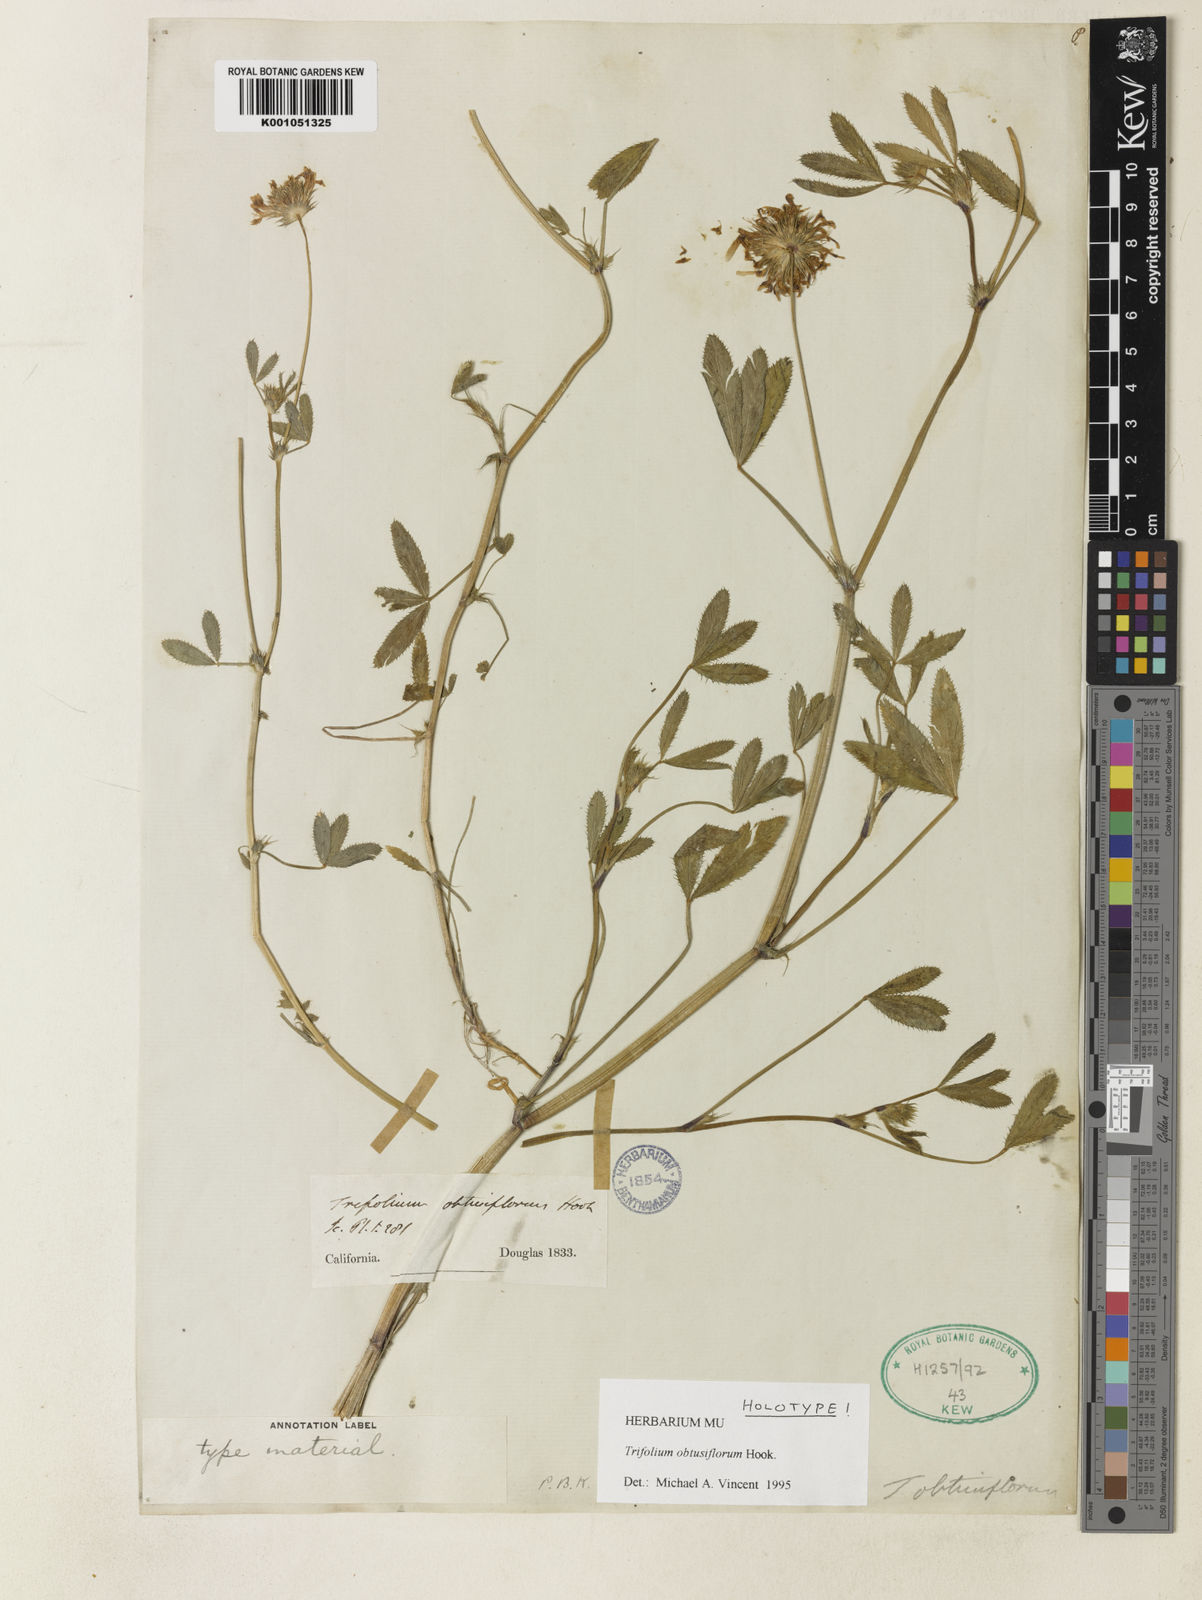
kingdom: Plantae
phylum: Tracheophyta
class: Magnoliopsida
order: Fabales
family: Fabaceae
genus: Trifolium
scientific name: Trifolium obtusiflorum
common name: Clammy clover
